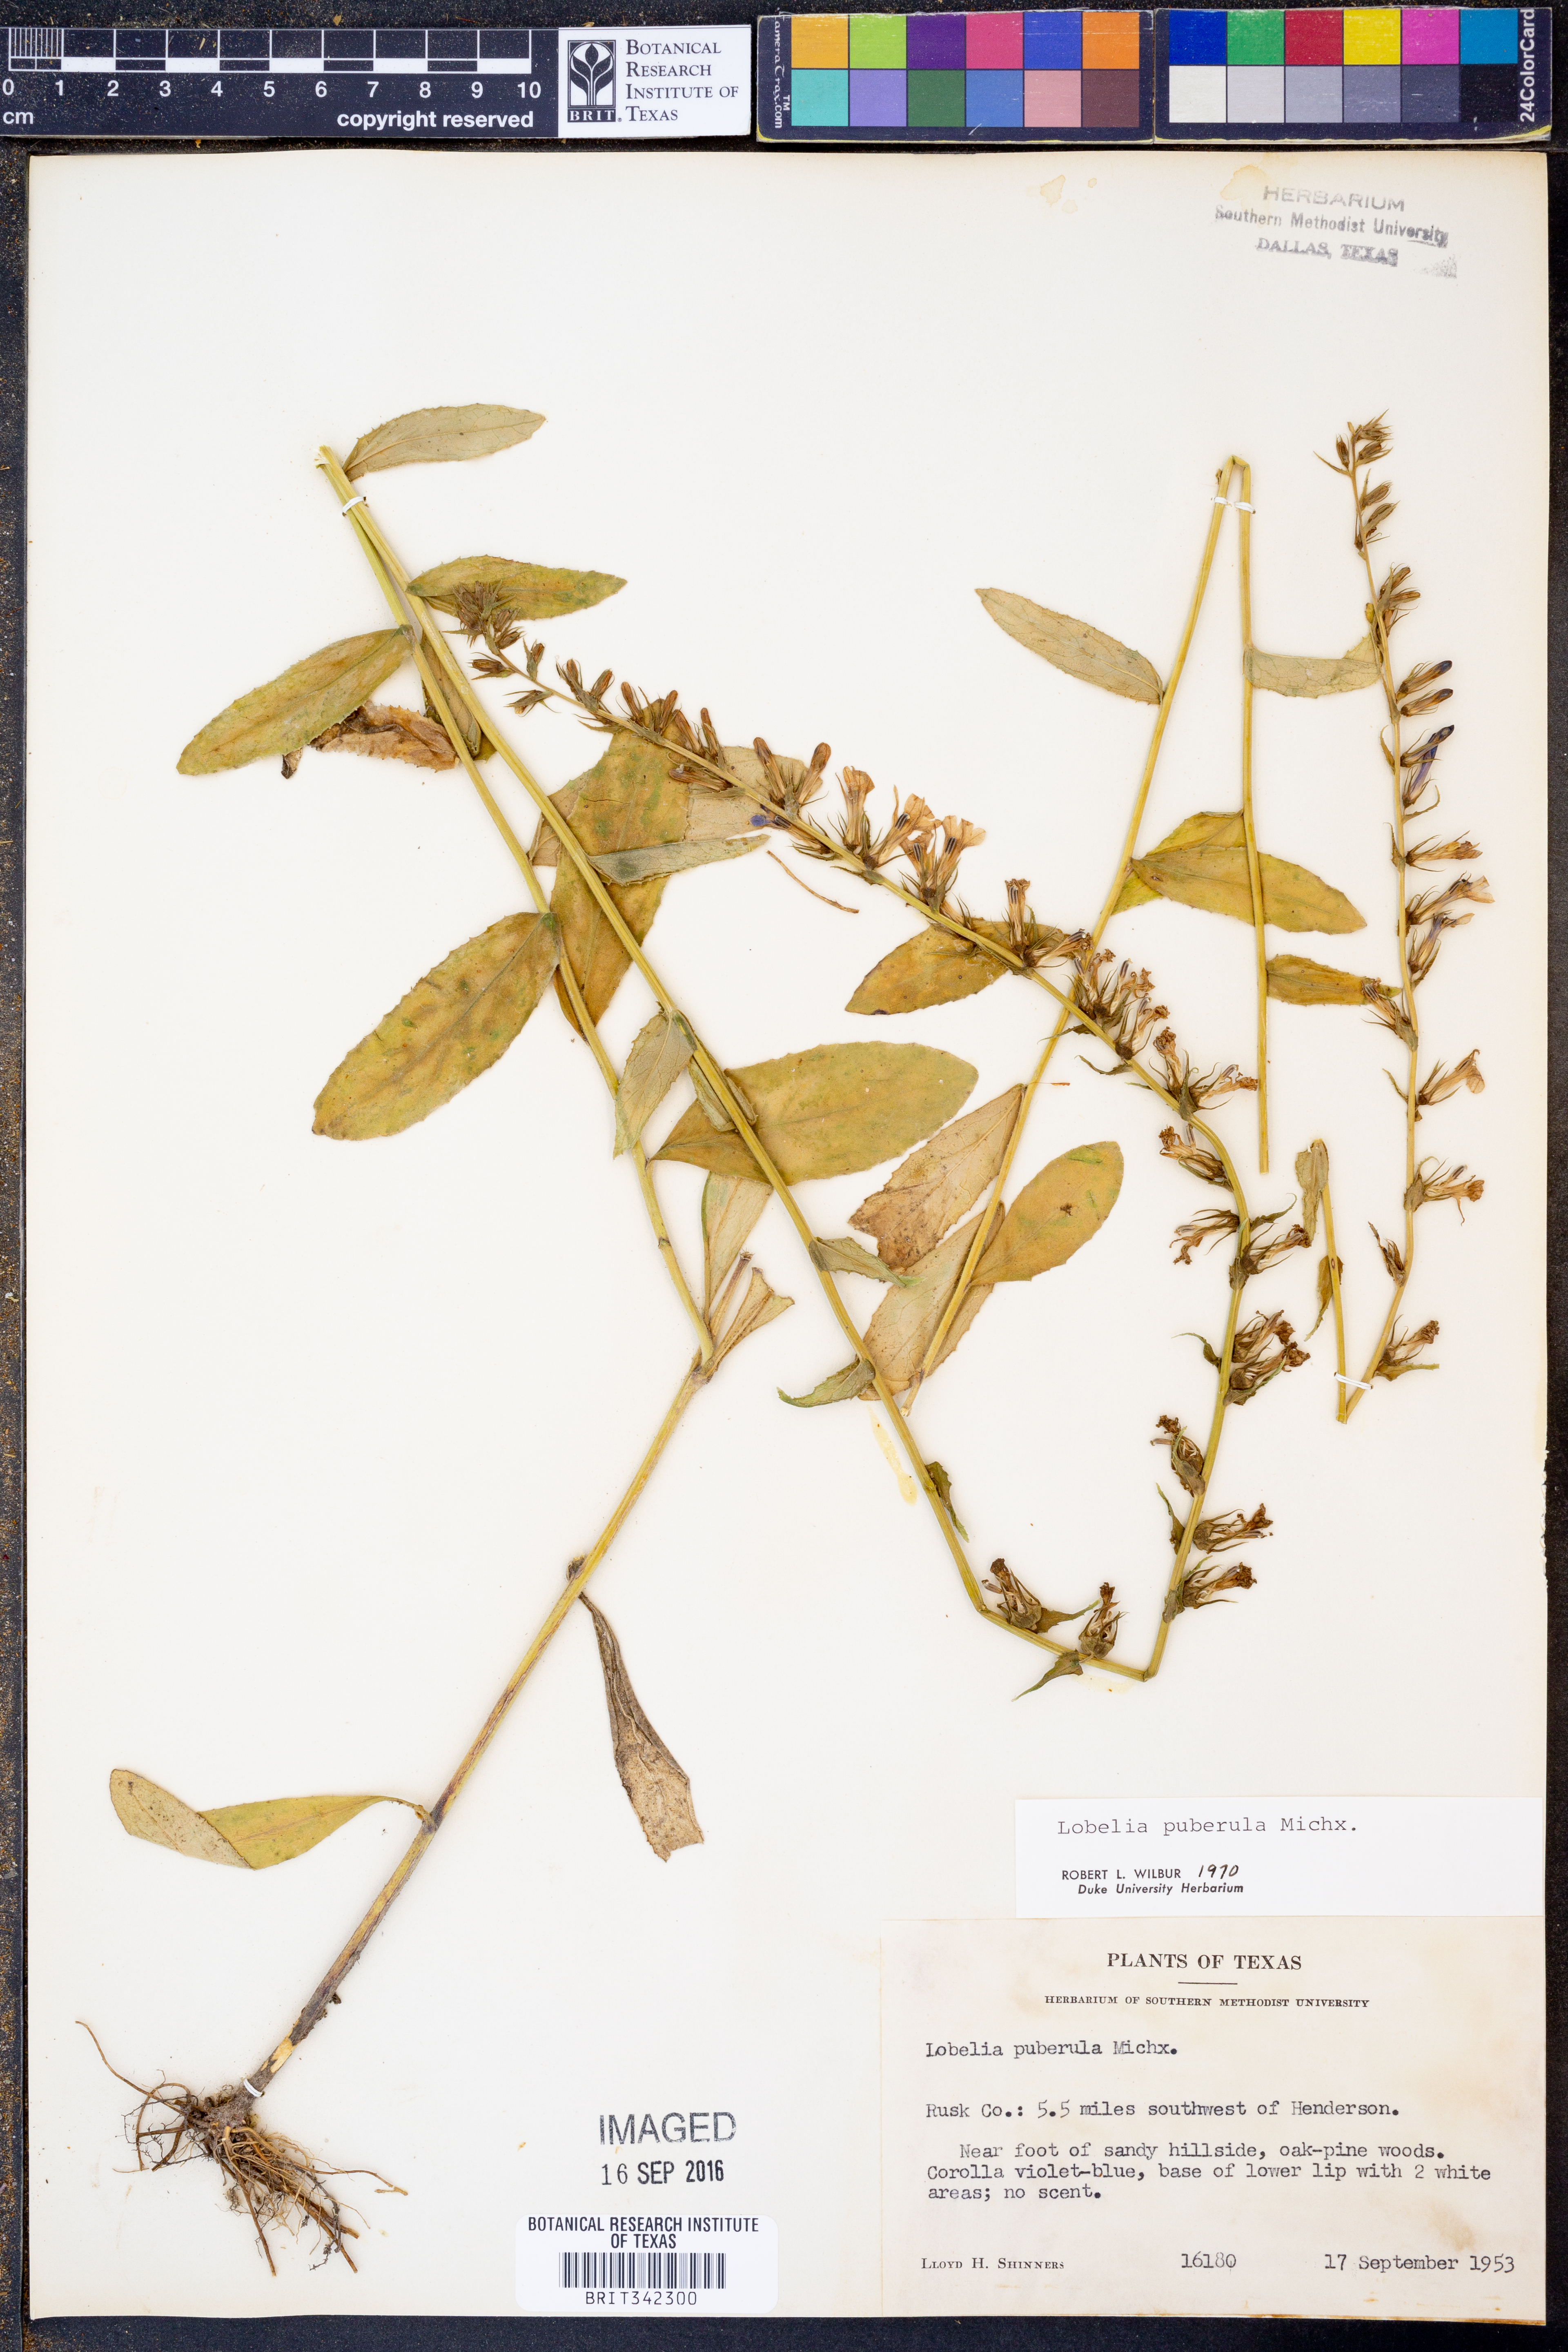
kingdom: Plantae
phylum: Tracheophyta
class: Magnoliopsida
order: Asterales
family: Campanulaceae
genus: Lobelia
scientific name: Lobelia puberula
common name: Purple dewdrop
